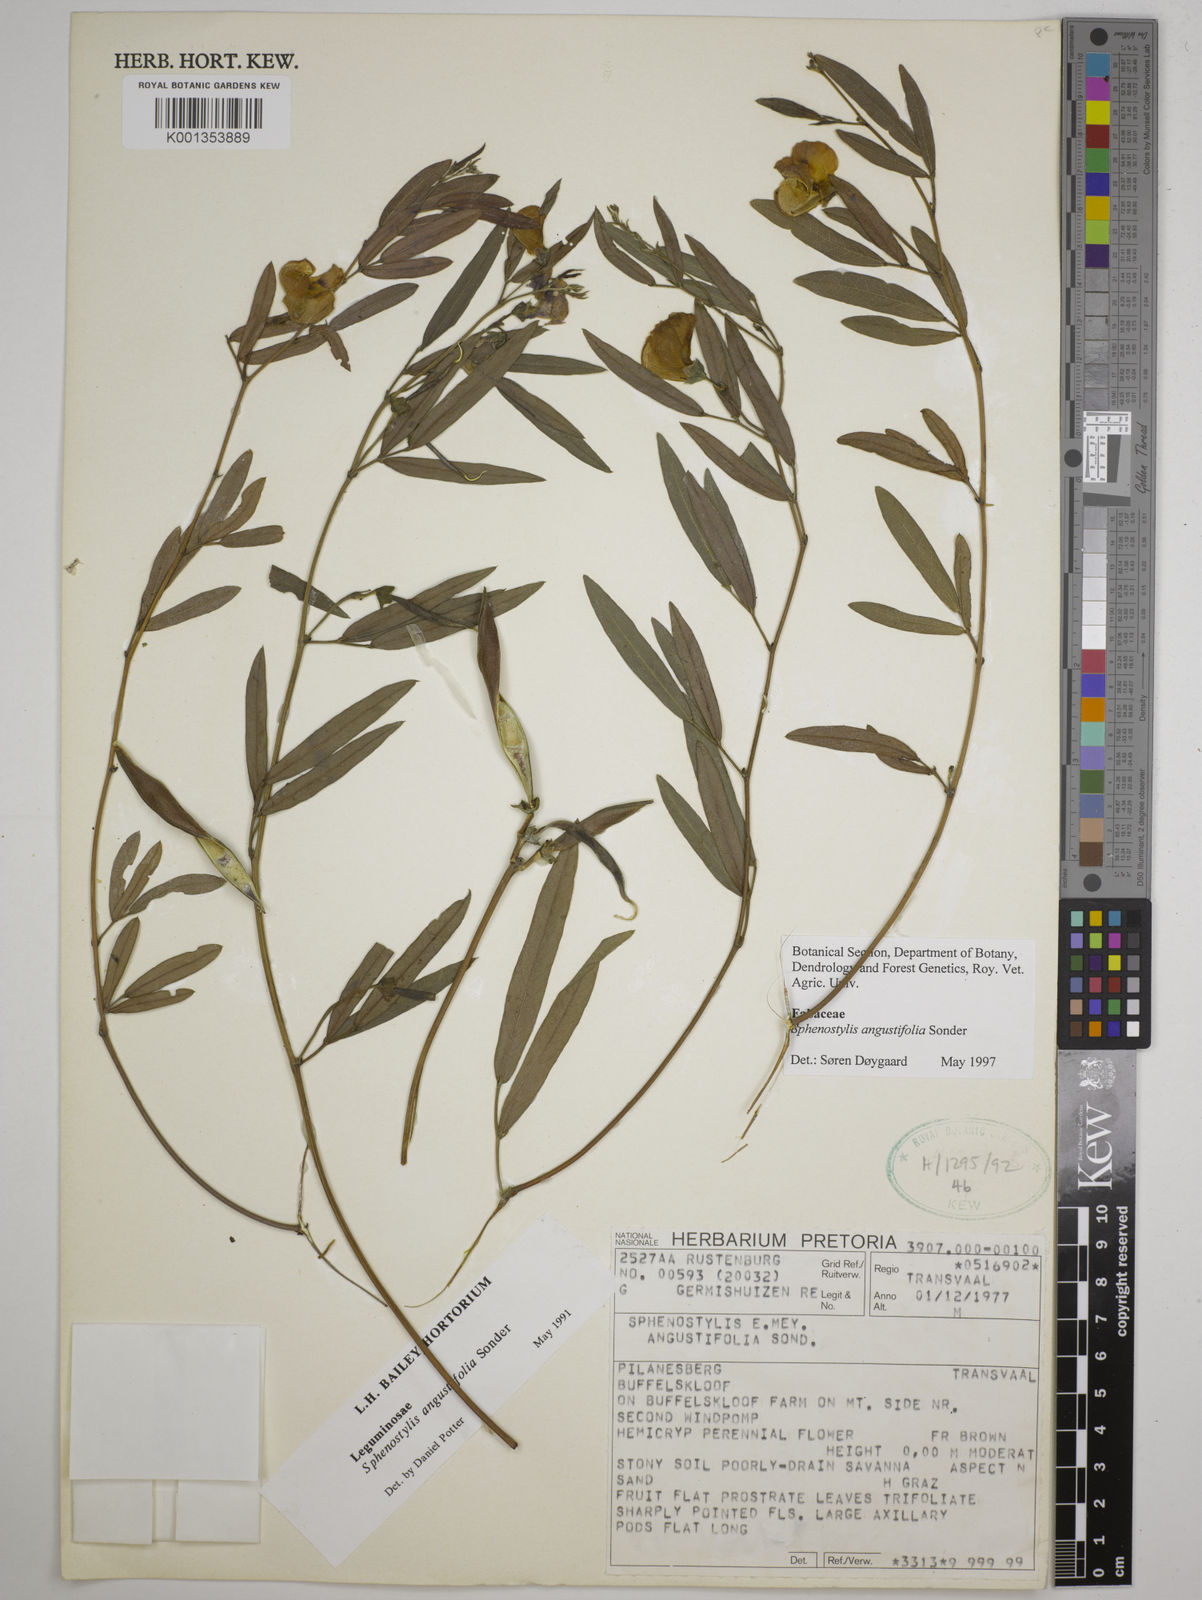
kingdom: Plantae
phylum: Tracheophyta
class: Magnoliopsida
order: Fabales
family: Fabaceae
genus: Sphenostylis
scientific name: Sphenostylis angustifolia
